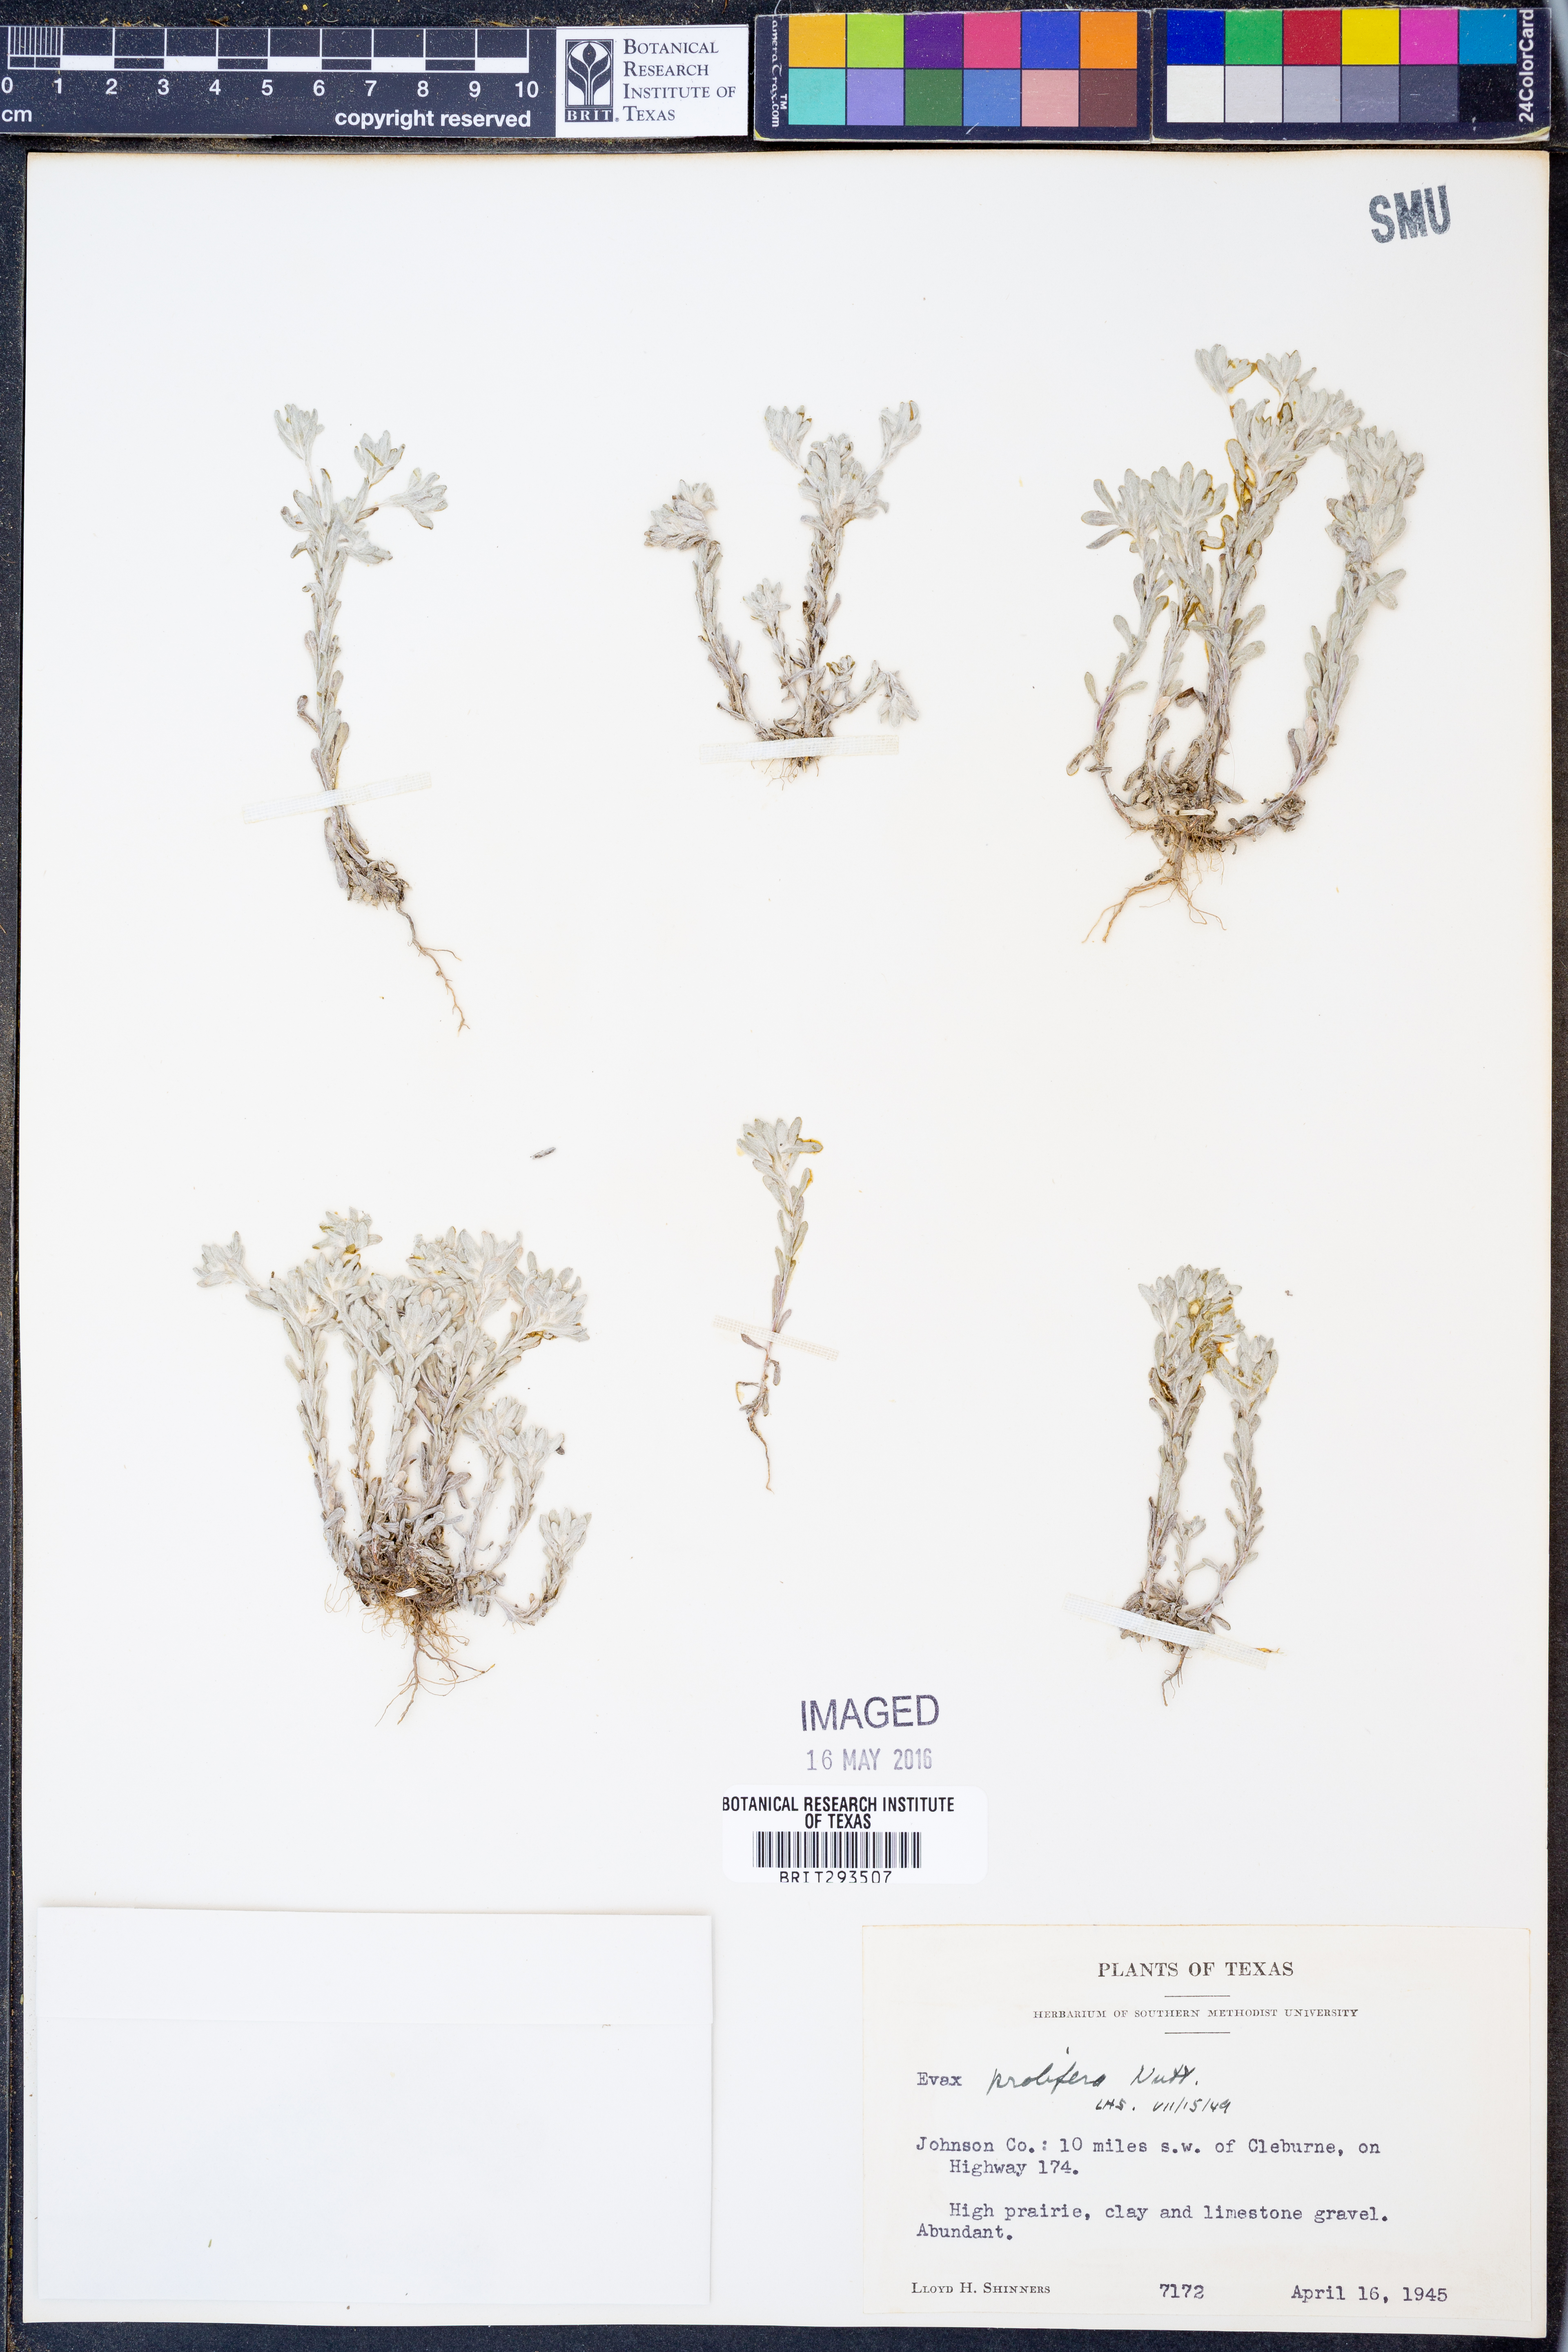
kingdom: Plantae
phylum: Tracheophyta
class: Magnoliopsida
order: Asterales
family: Asteraceae
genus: Diaperia
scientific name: Diaperia prolifera
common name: Big-head rabbit-tobacco
